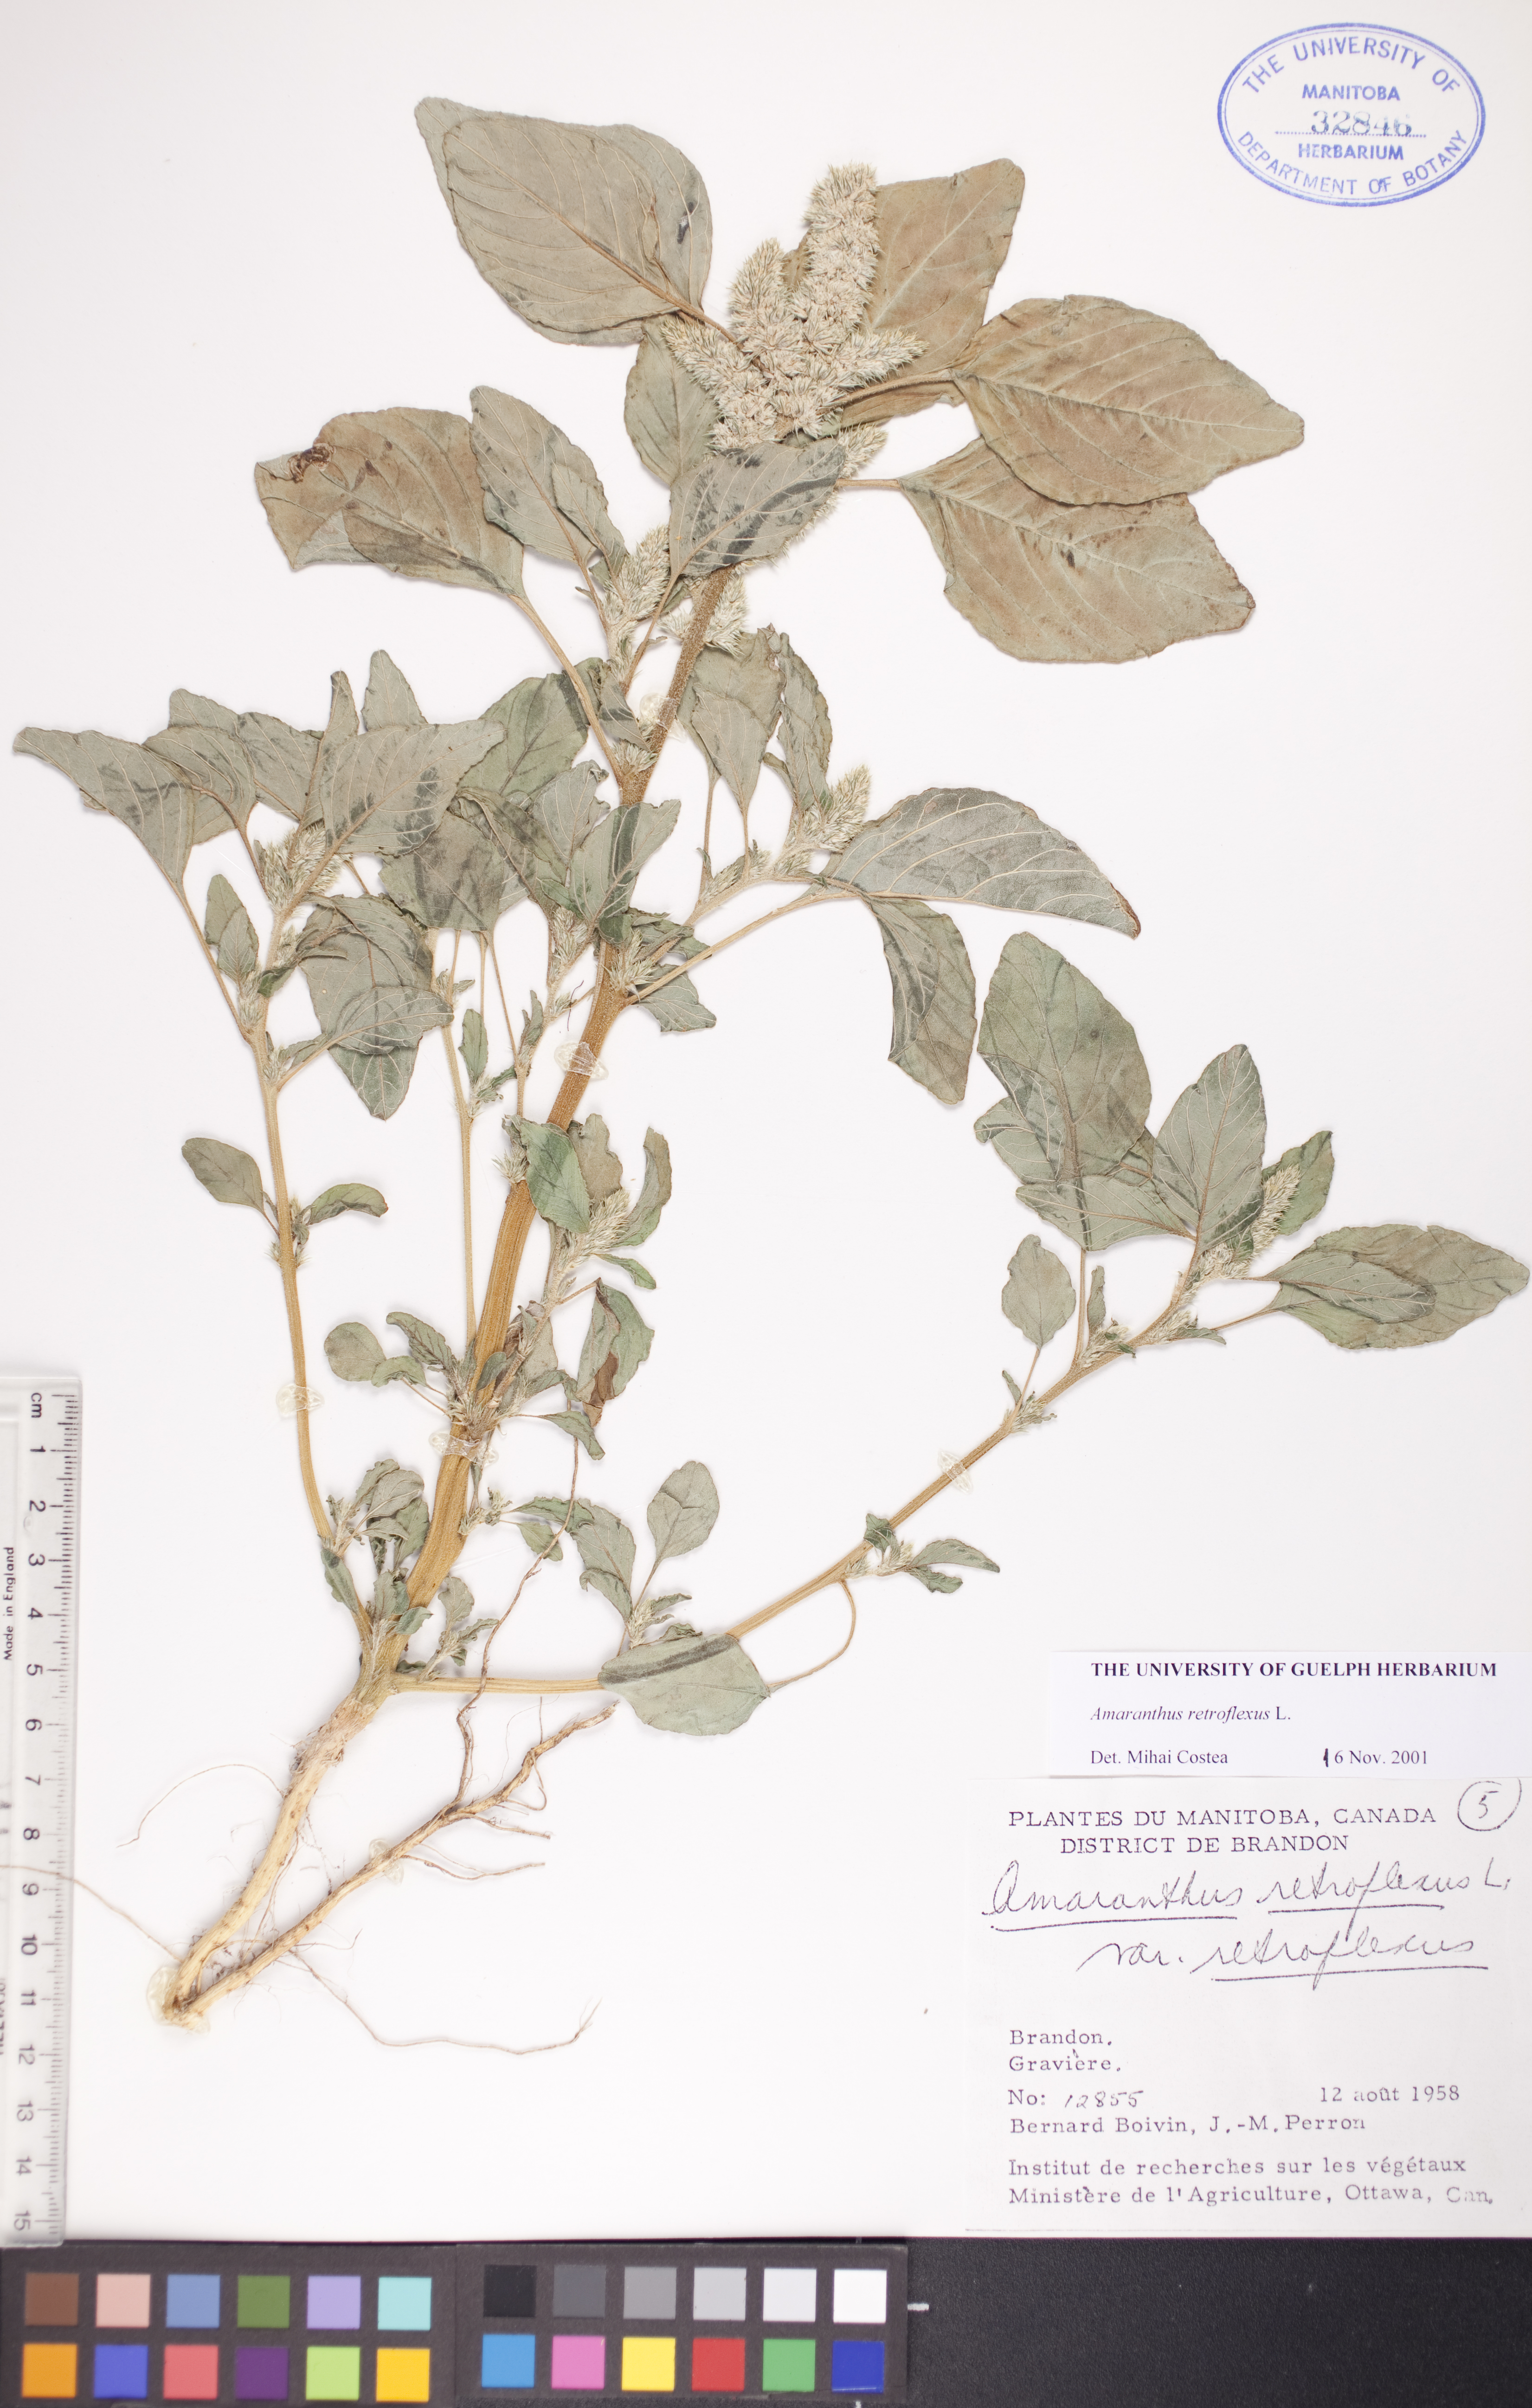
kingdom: Plantae
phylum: Tracheophyta
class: Magnoliopsida
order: Caryophyllales
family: Amaranthaceae
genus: Amaranthus
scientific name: Amaranthus retroflexus
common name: Redroot amaranth
